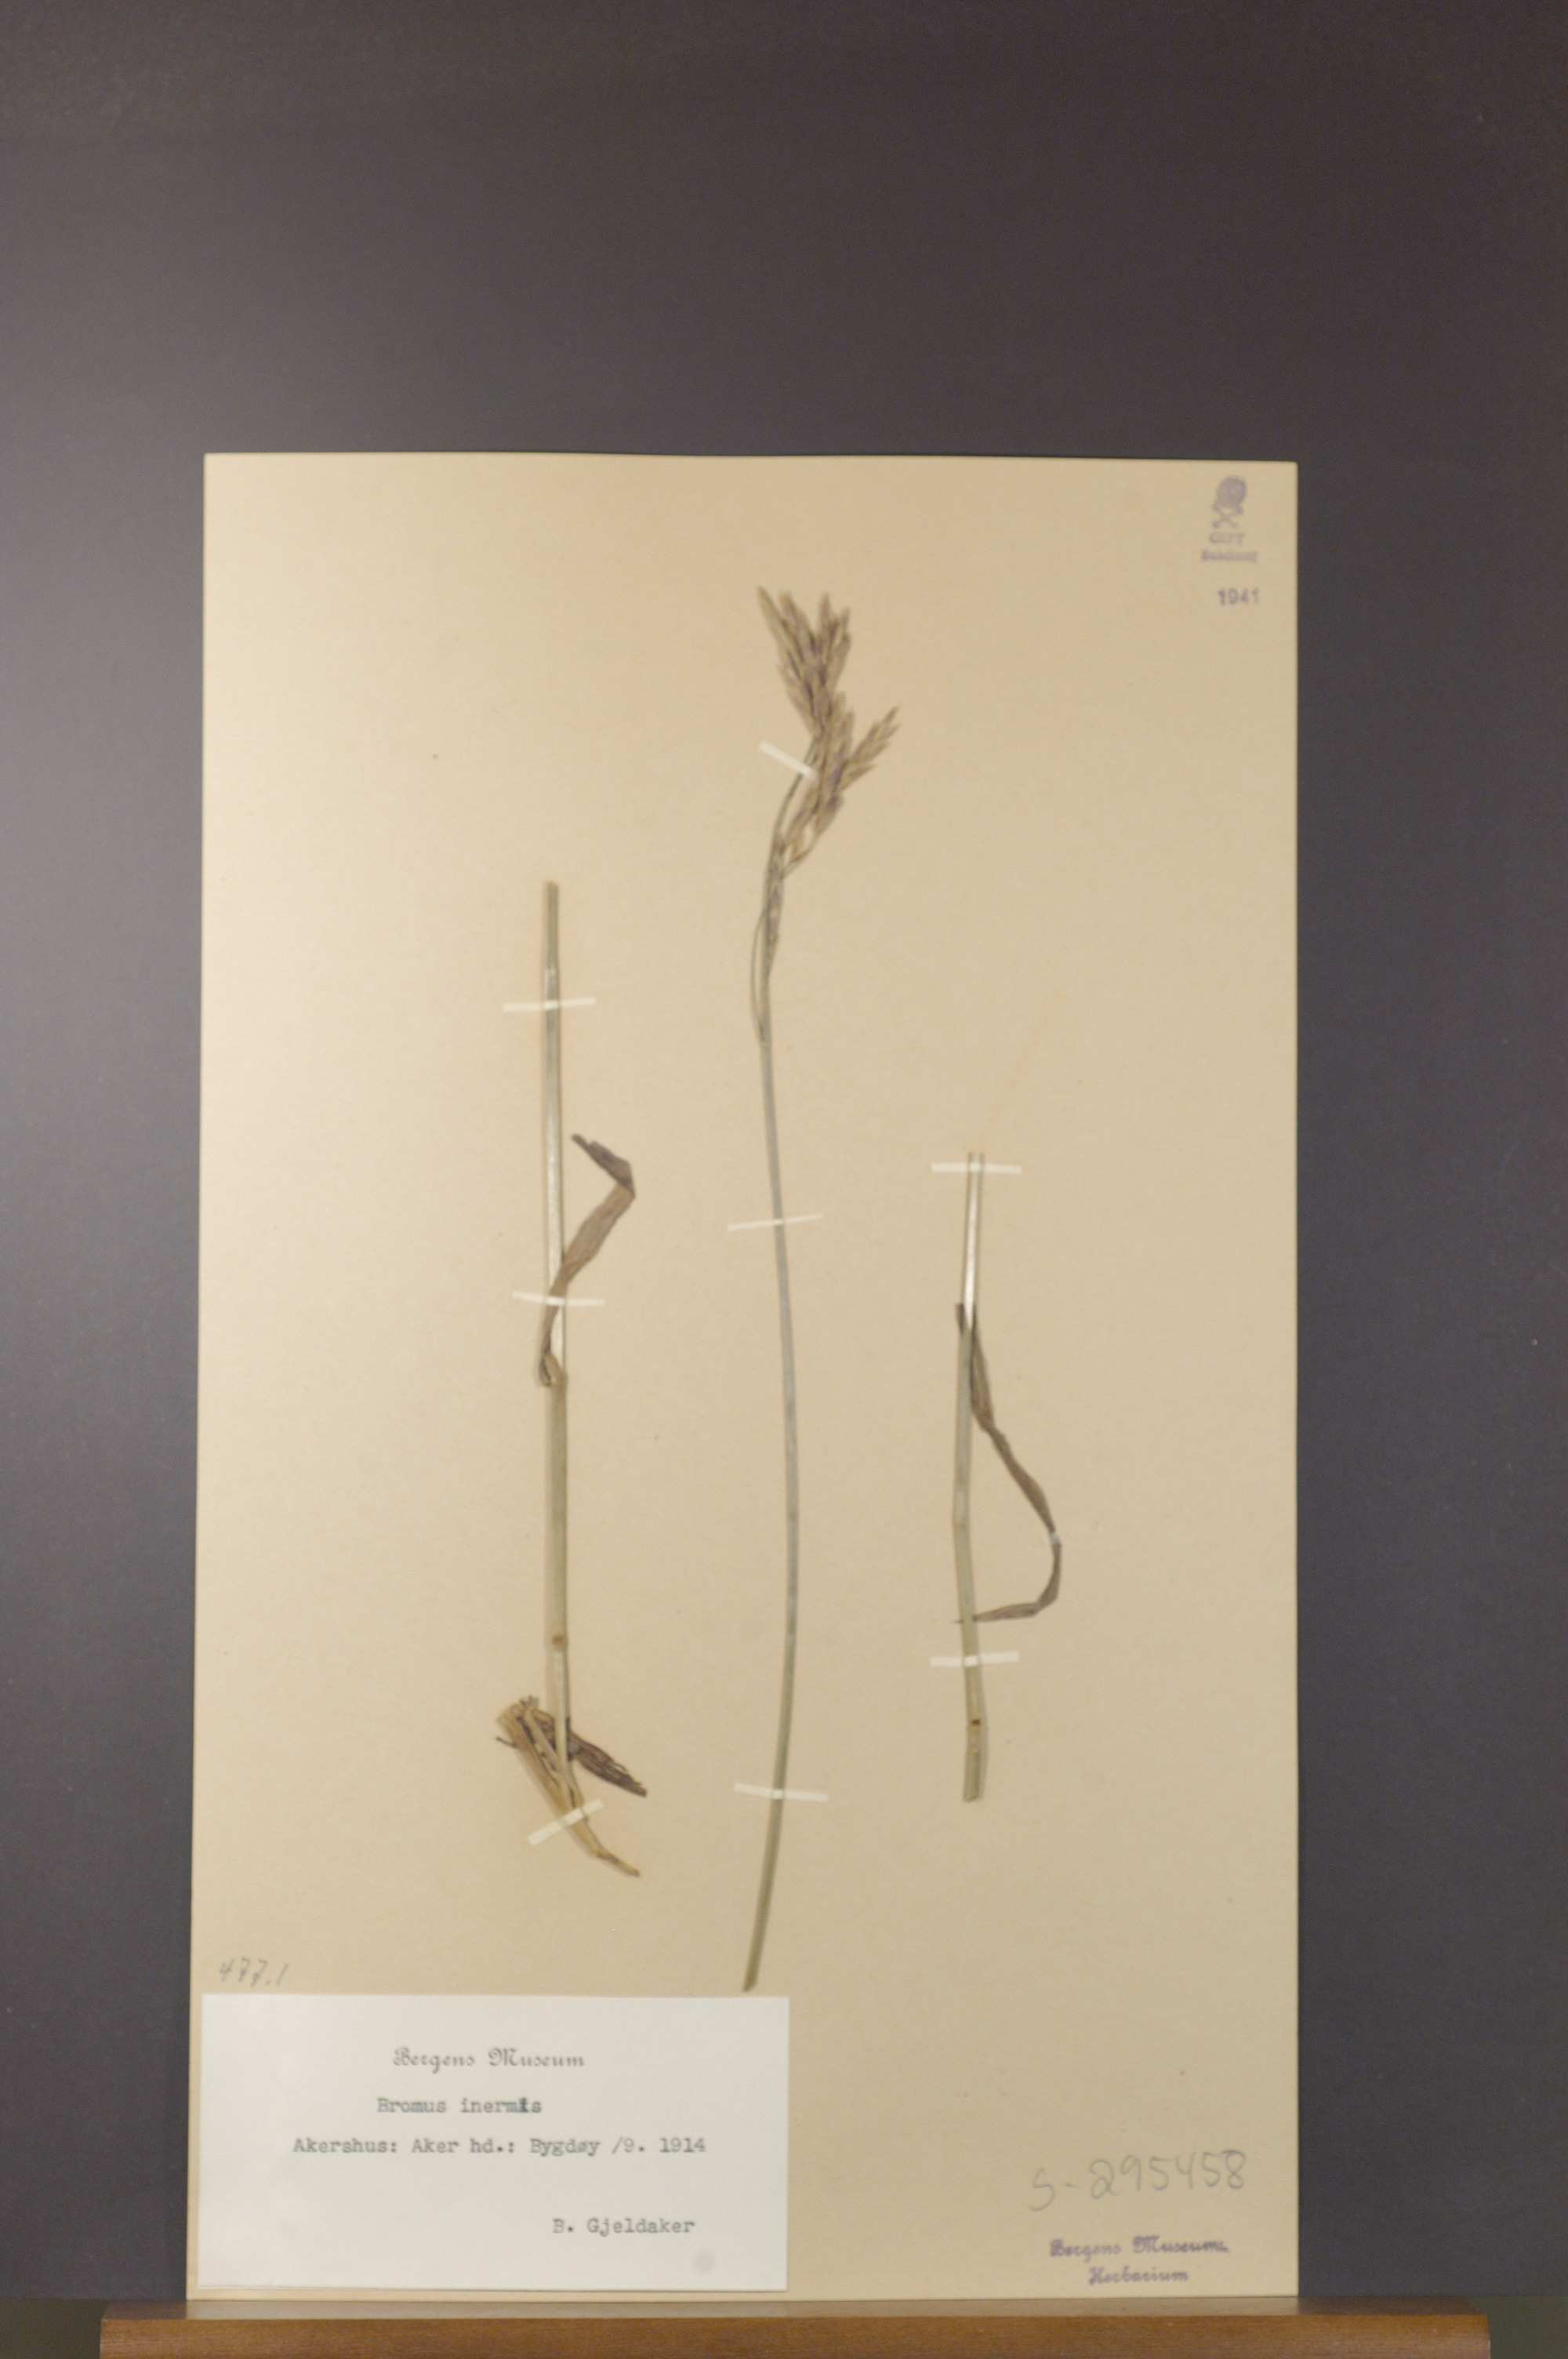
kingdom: Plantae
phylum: Tracheophyta
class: Liliopsida
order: Poales
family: Poaceae
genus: Bromus
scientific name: Bromus inermis
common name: Smooth brome
